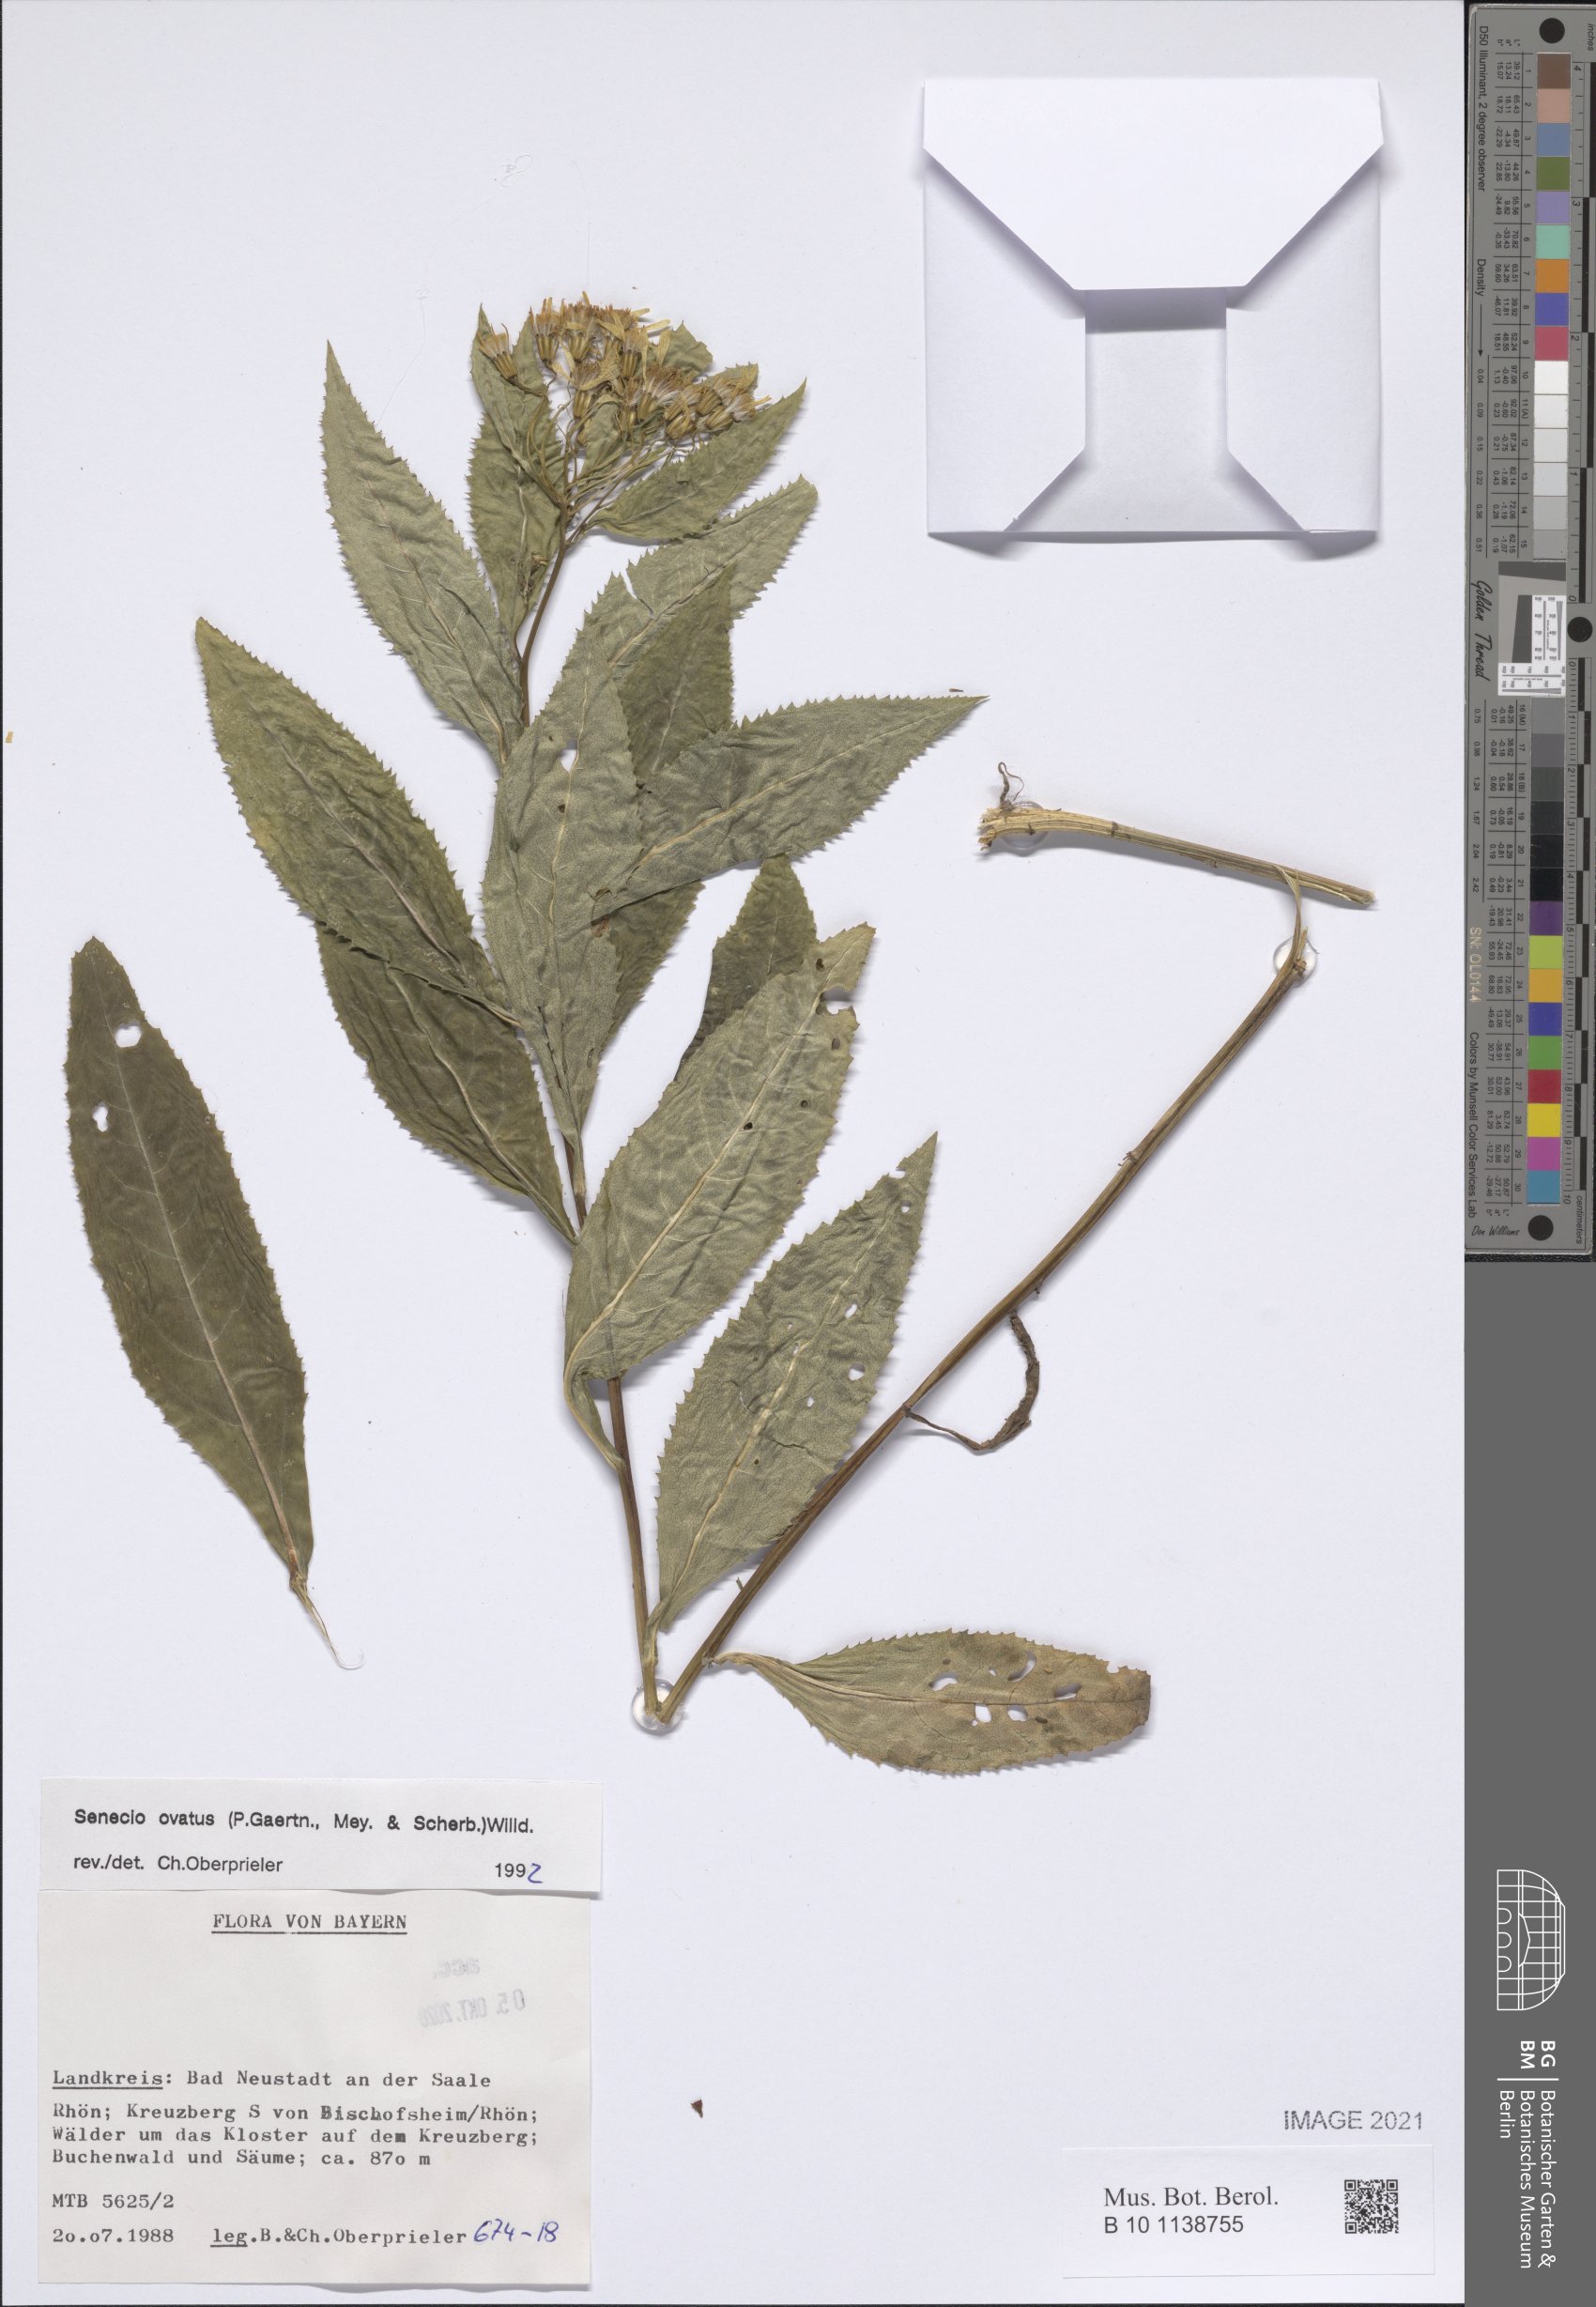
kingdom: Plantae
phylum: Tracheophyta
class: Magnoliopsida
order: Asterales
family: Asteraceae
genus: Senecio
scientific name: Senecio ovatus
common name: Wood ragwort
